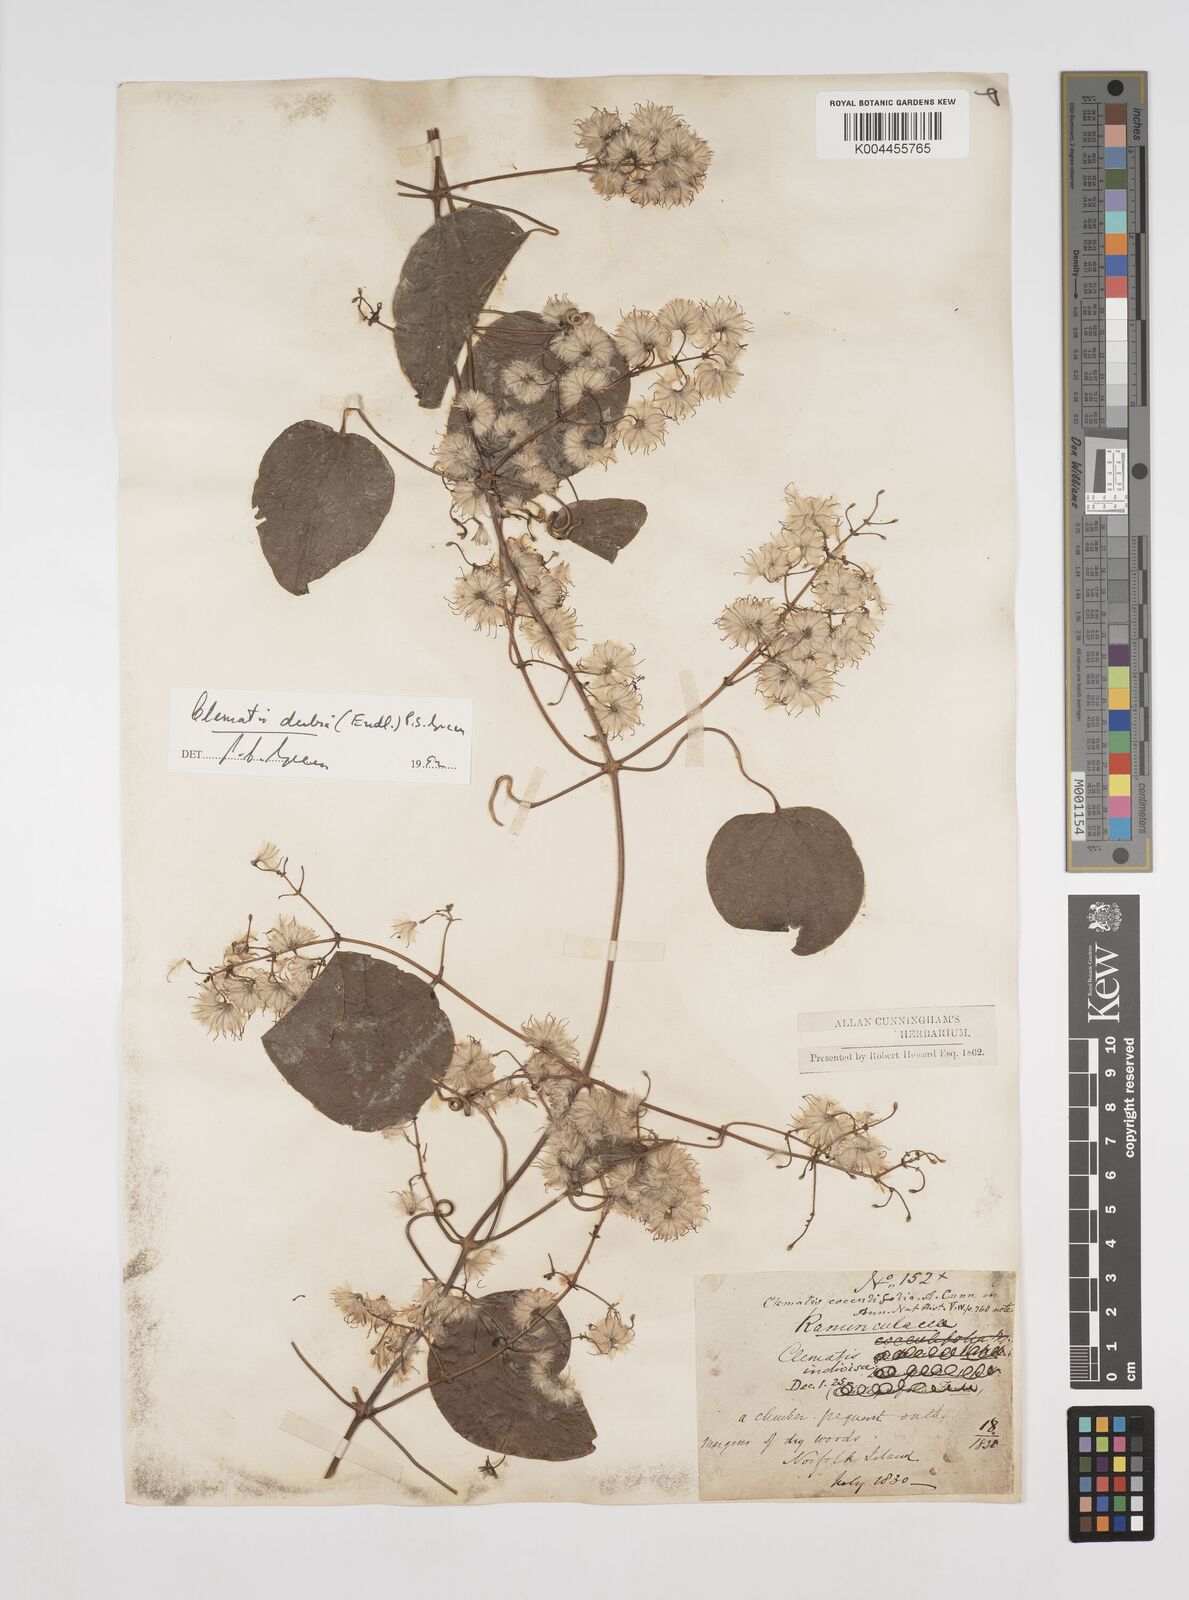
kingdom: Plantae
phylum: Tracheophyta
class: Magnoliopsida
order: Ranunculales
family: Ranunculaceae
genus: Clematis
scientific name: Clematis dubia
